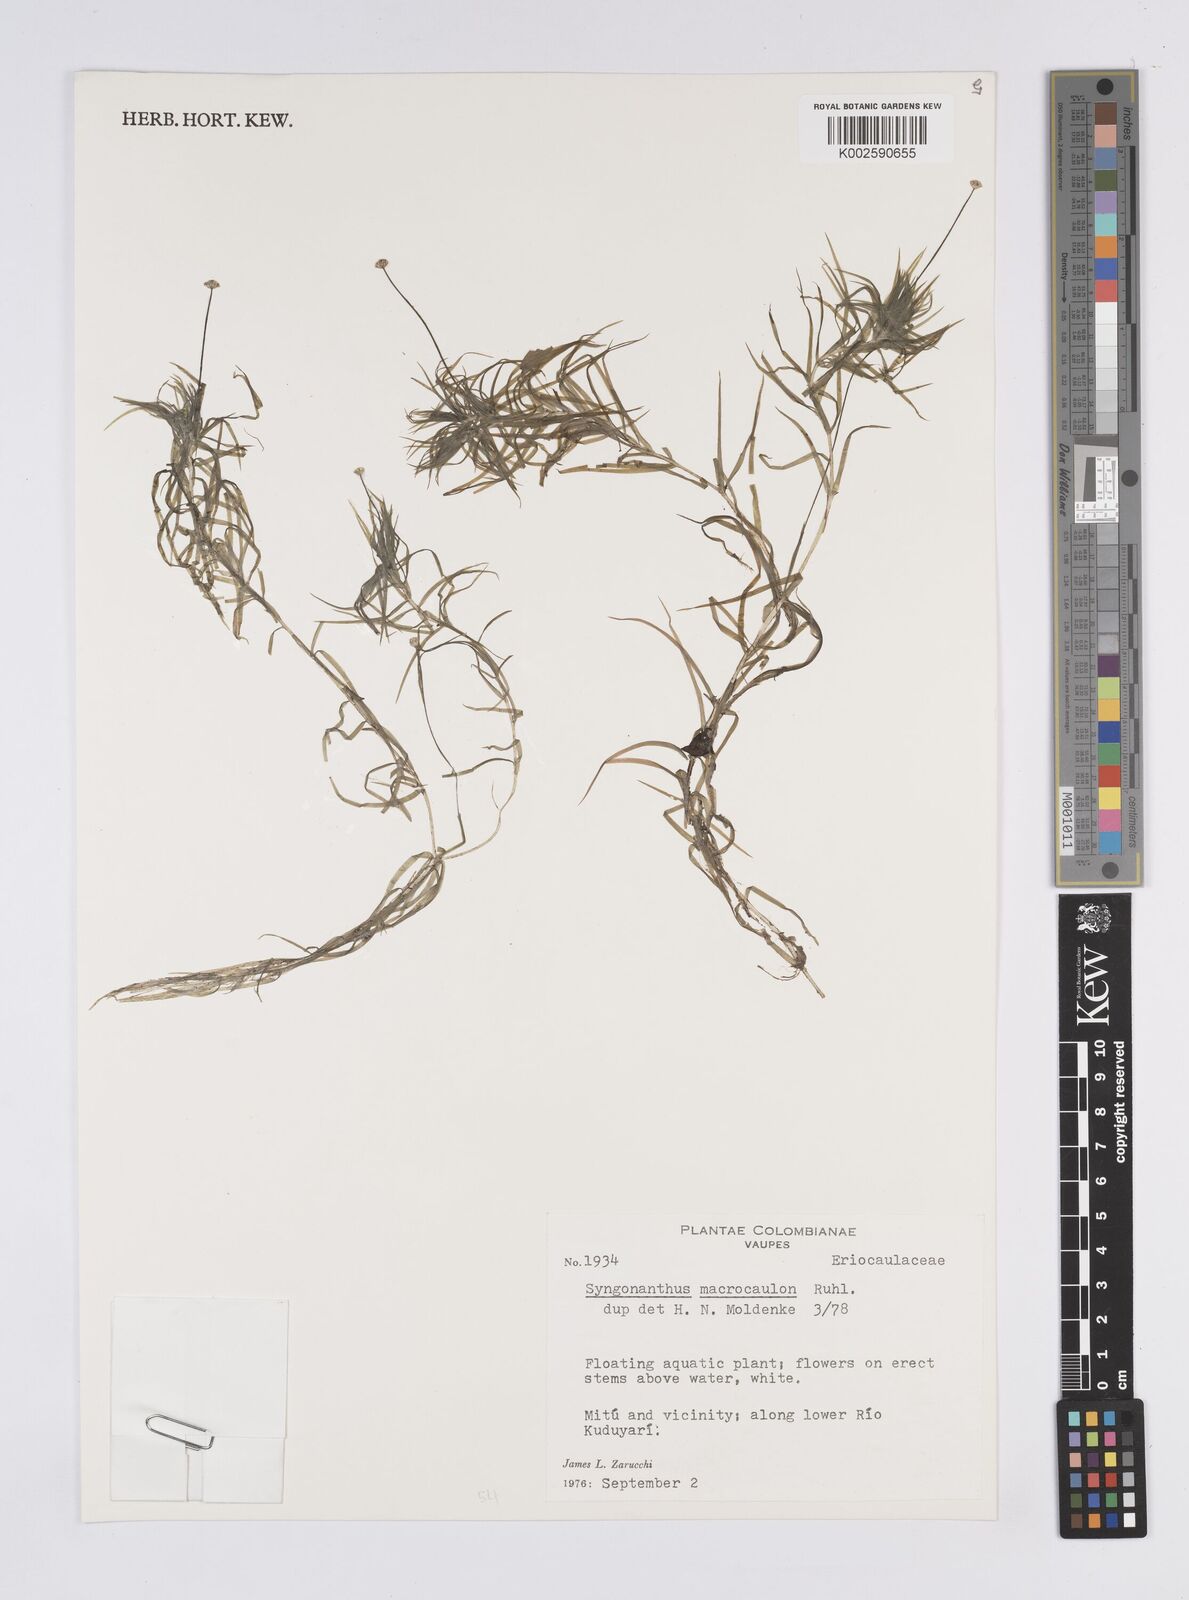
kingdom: Plantae
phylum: Tracheophyta
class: Liliopsida
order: Poales
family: Eriocaulaceae
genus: Syngonanthus
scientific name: Syngonanthus anomalus
